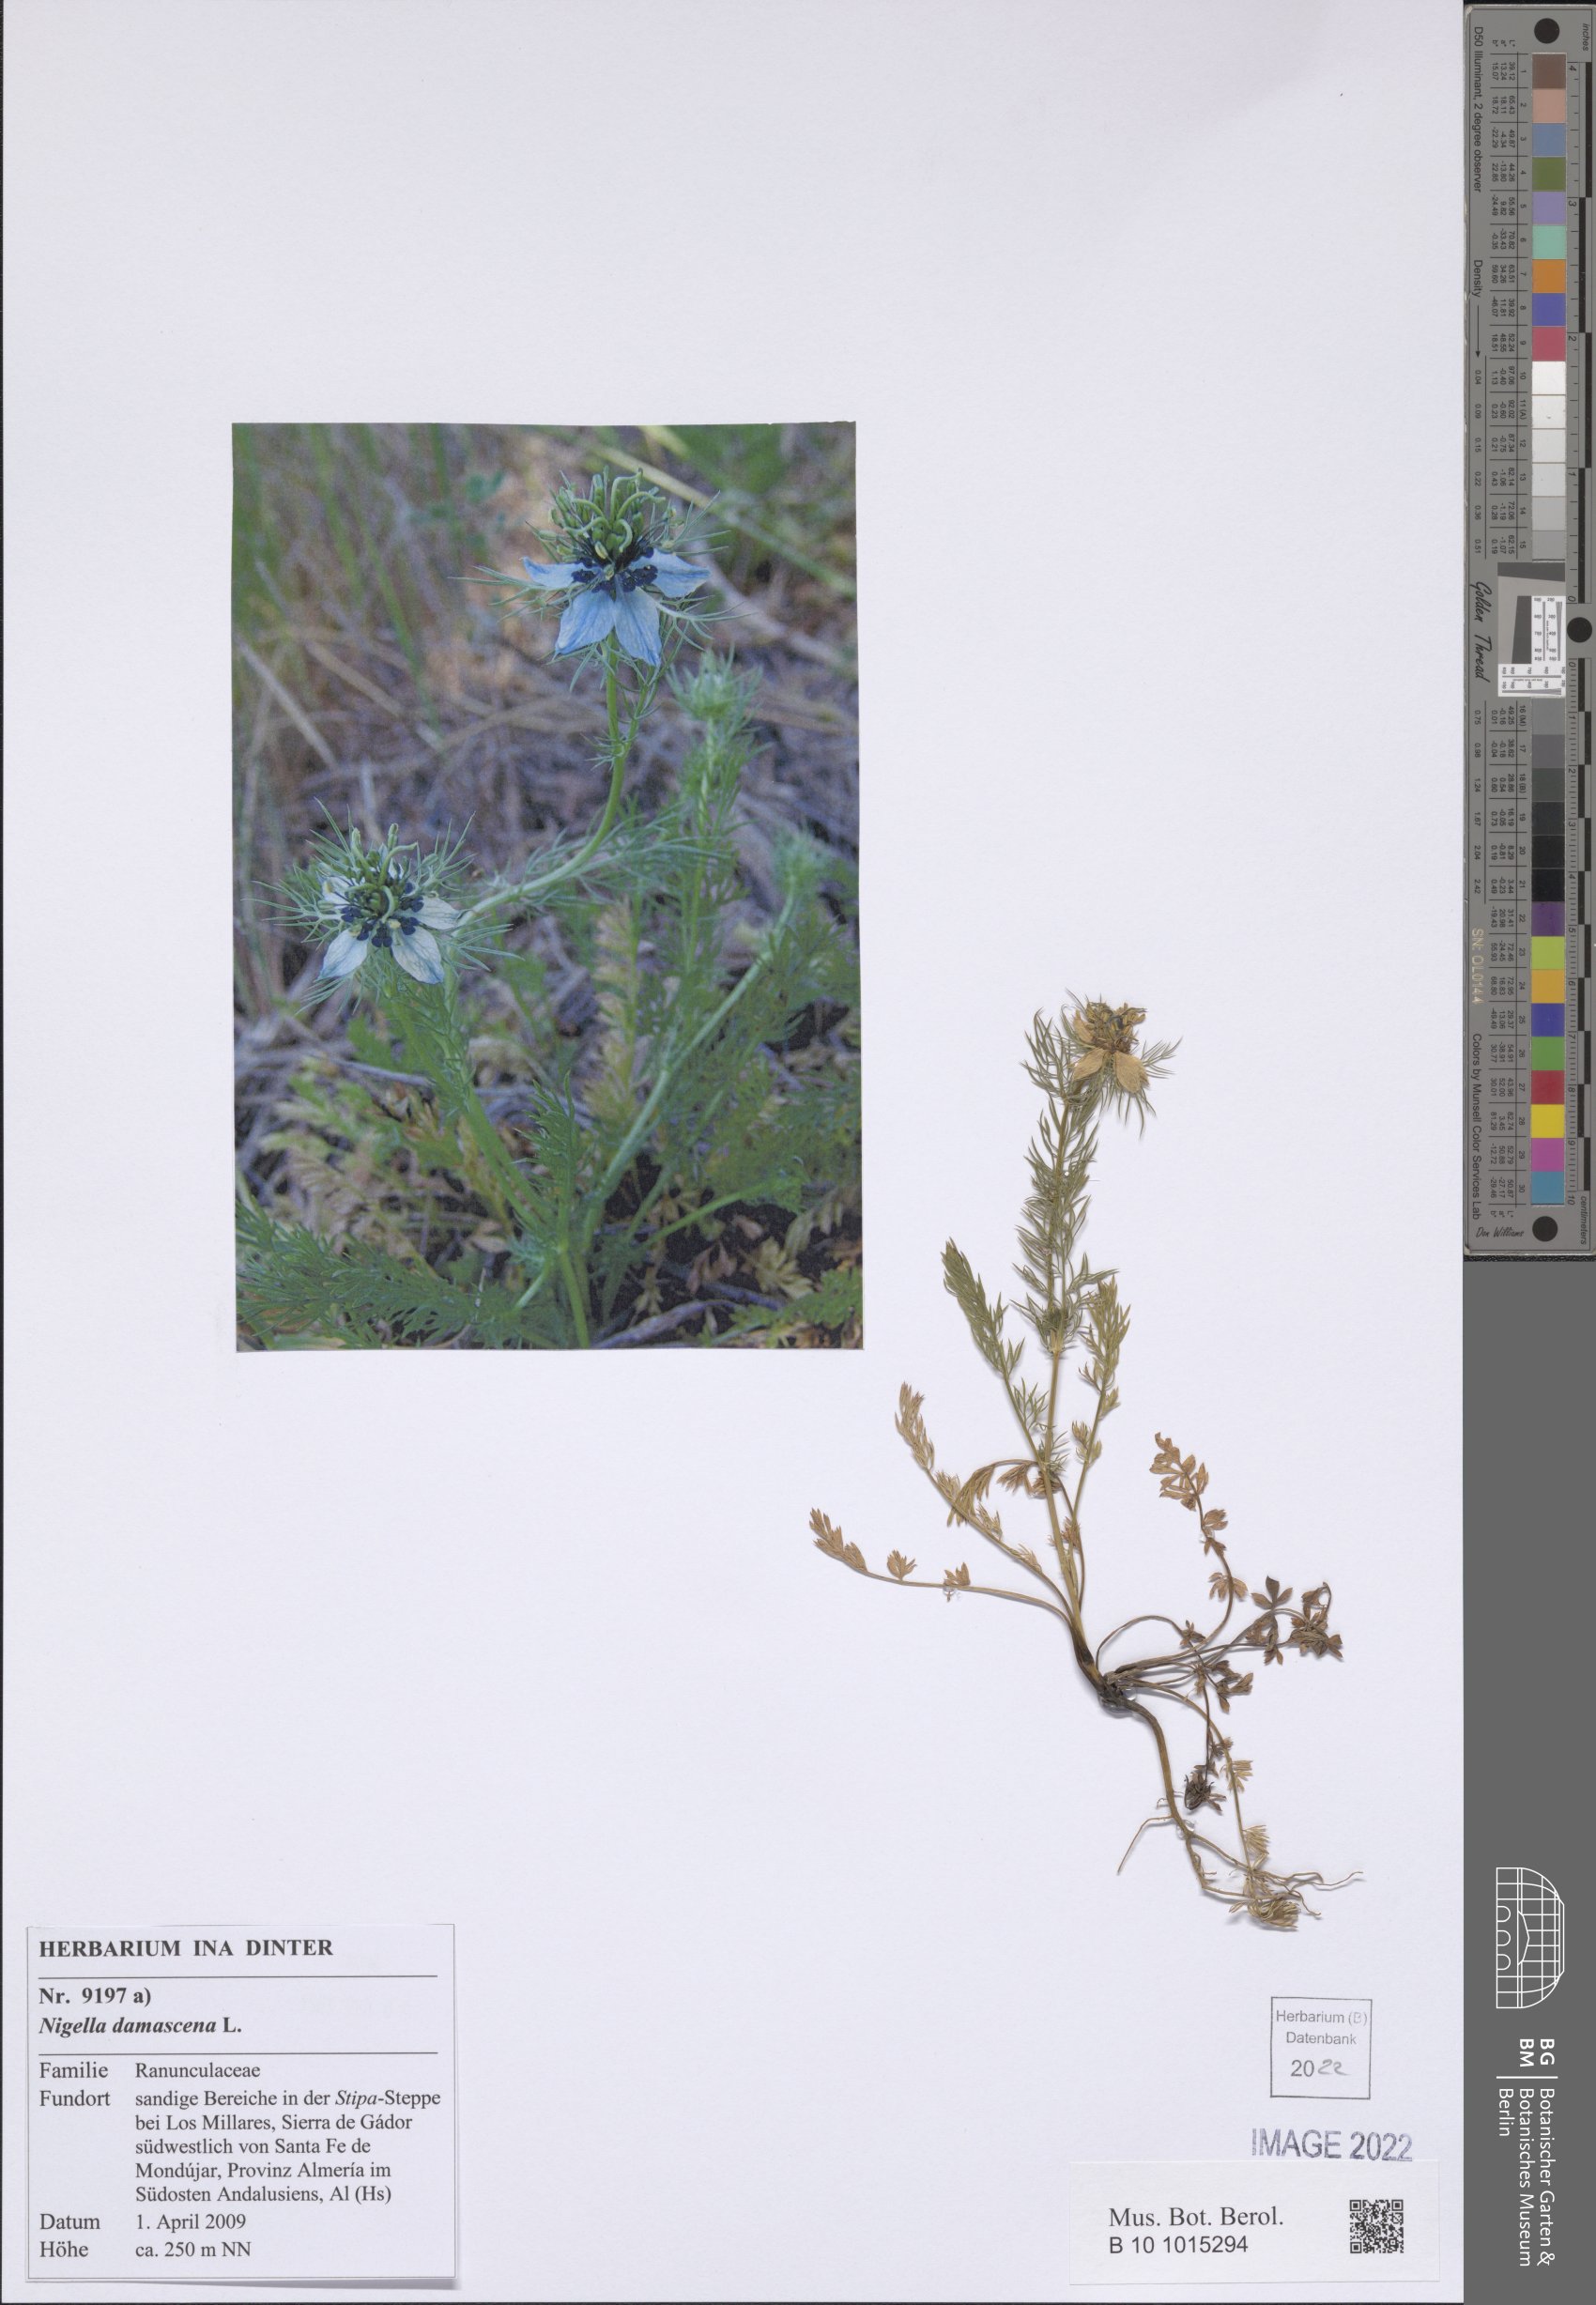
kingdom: Plantae
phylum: Tracheophyta
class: Magnoliopsida
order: Ranunculales
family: Ranunculaceae
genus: Nigella
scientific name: Nigella damascena
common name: Love-in-a-mist
